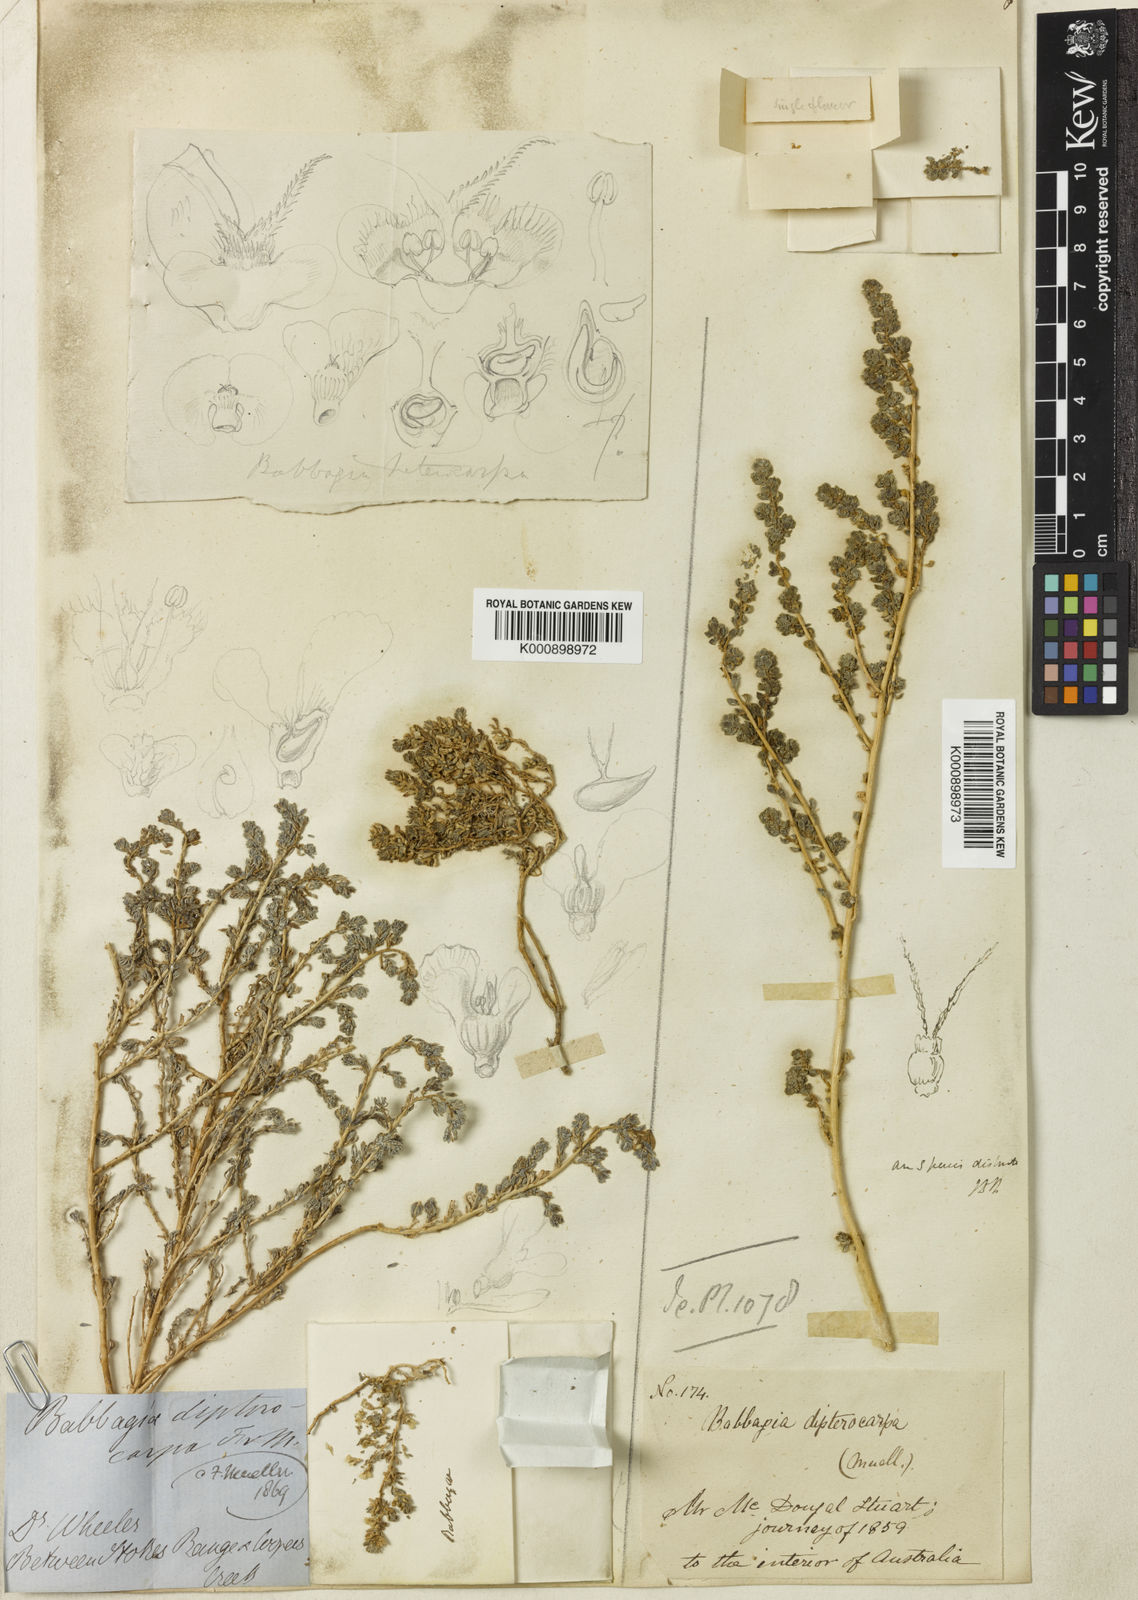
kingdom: Plantae
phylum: Tracheophyta
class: Magnoliopsida
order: Caryophyllales
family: Amaranthaceae
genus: Osteocarpum
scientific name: Osteocarpum dipterocarpum
